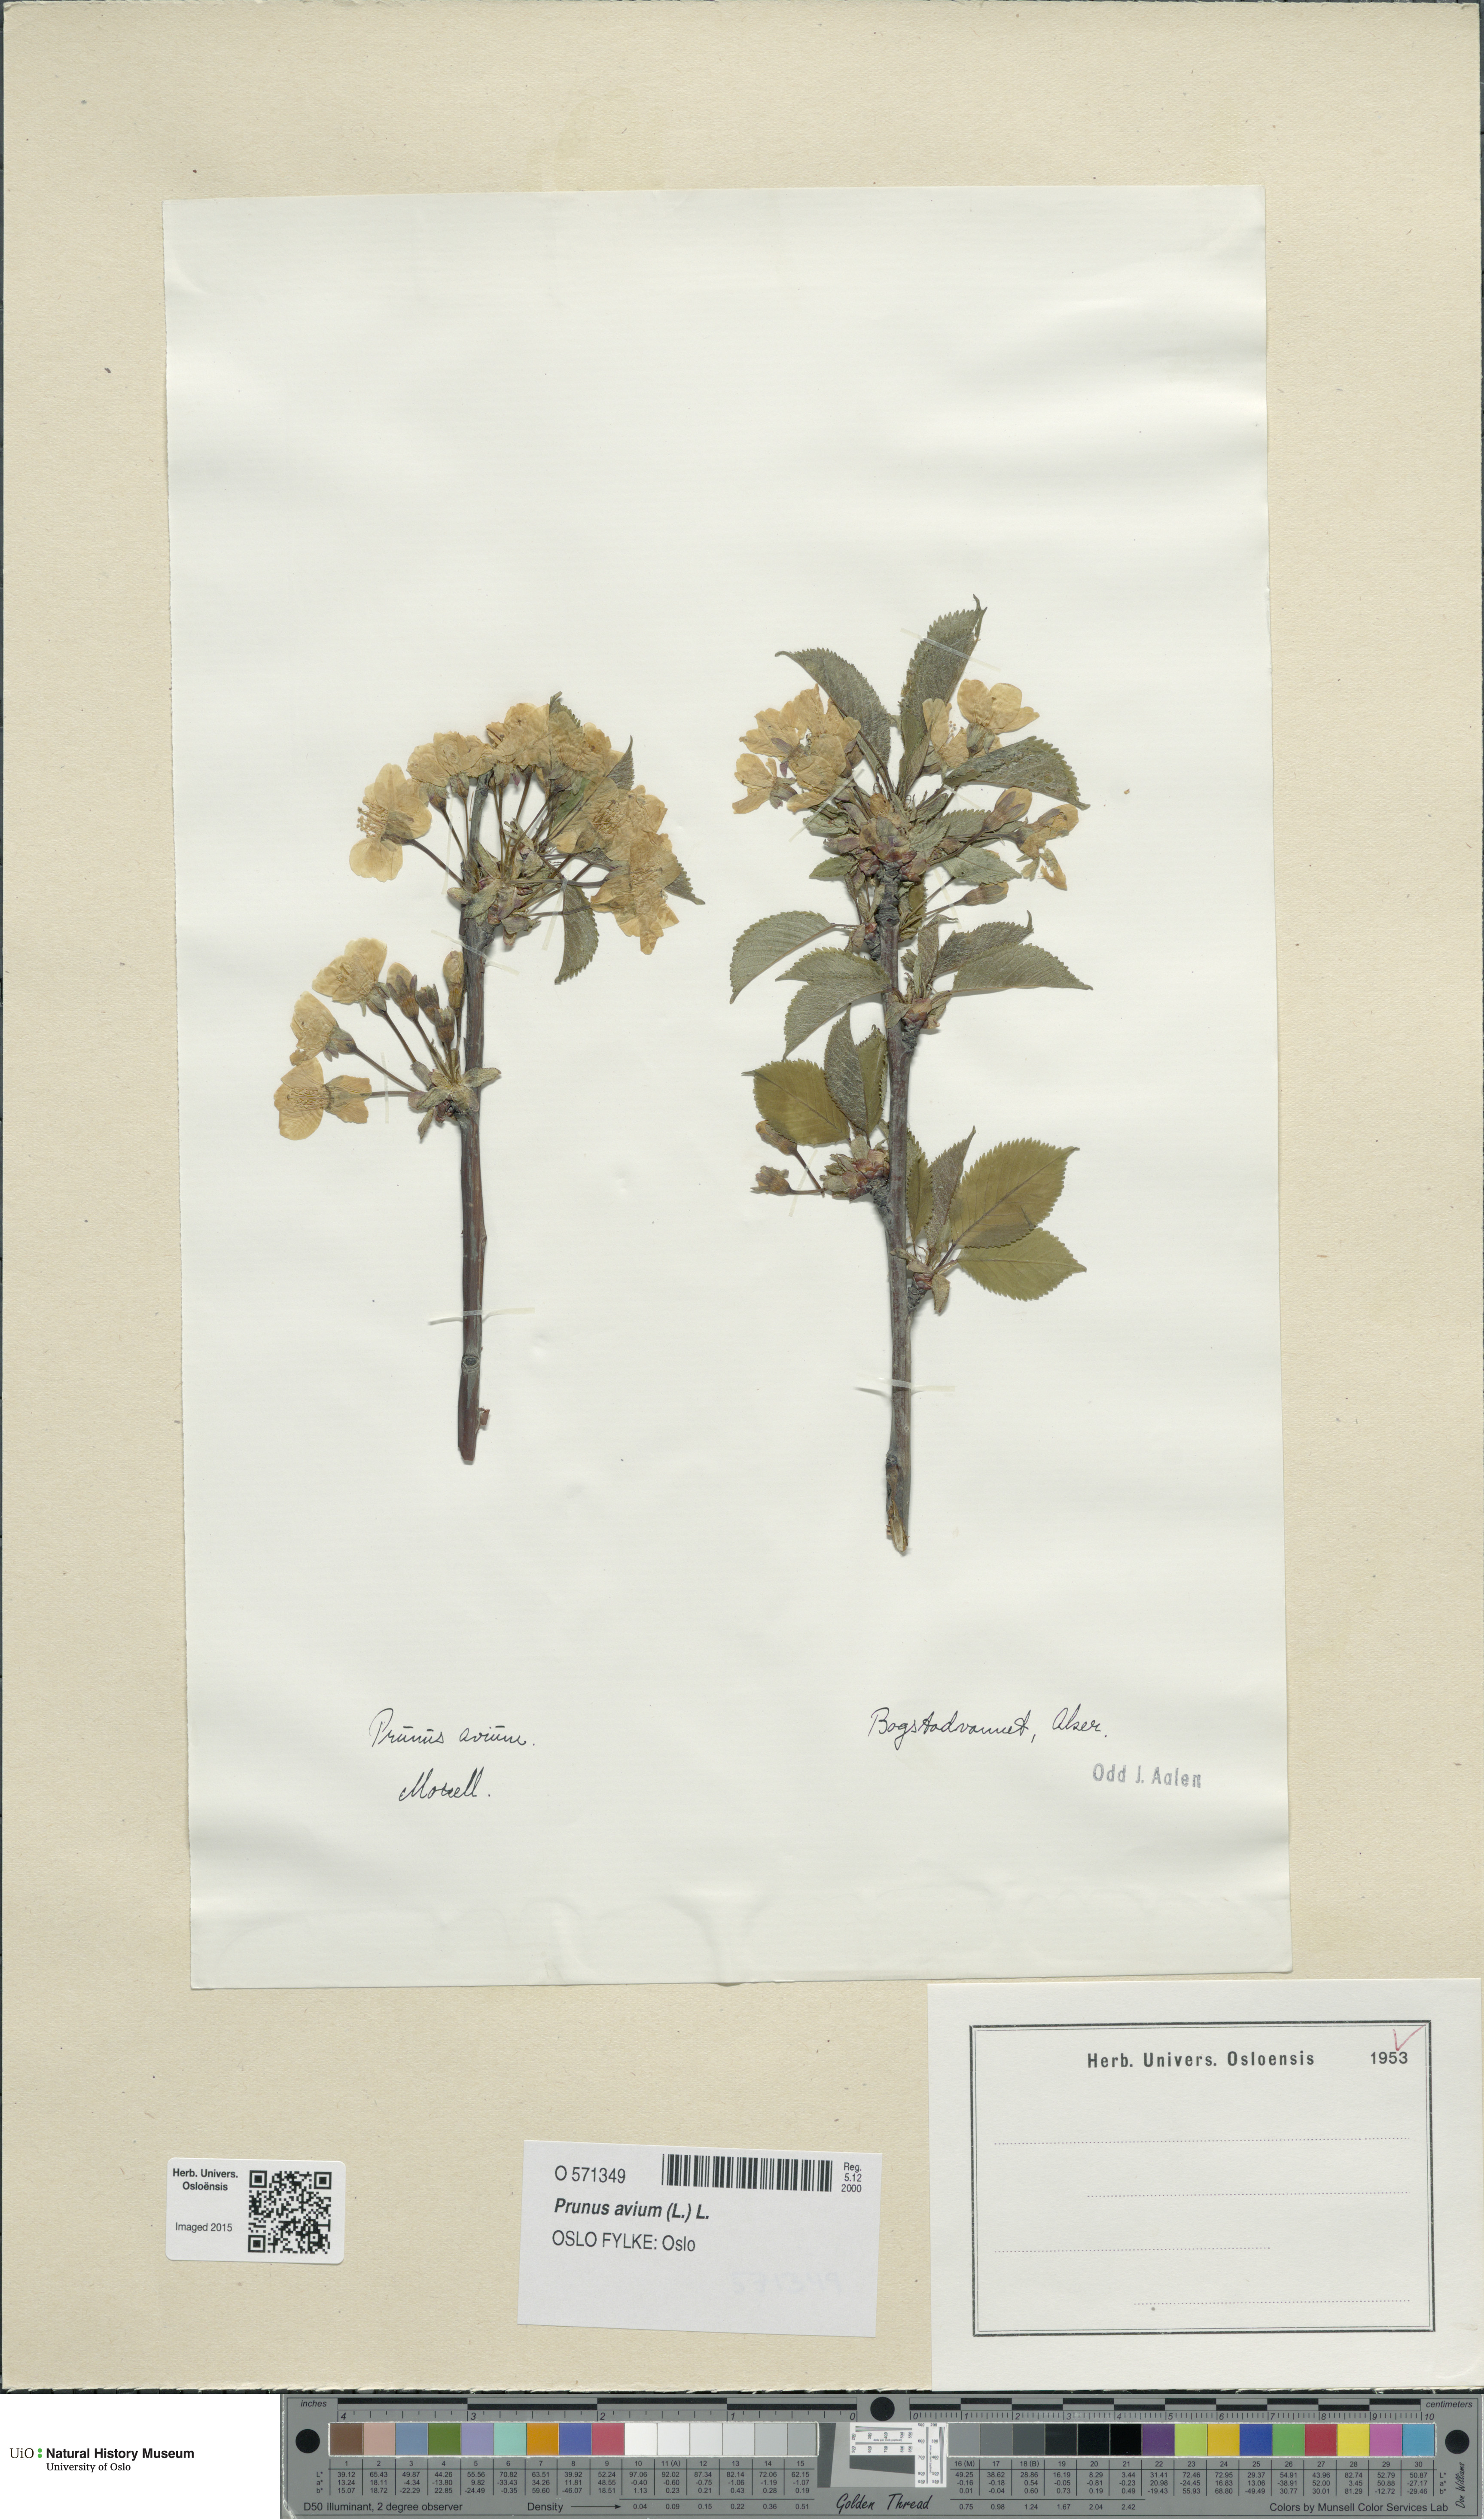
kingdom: Plantae
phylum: Tracheophyta
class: Magnoliopsida
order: Rosales
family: Rosaceae
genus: Prunus
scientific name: Prunus avium
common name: Sweet cherry
